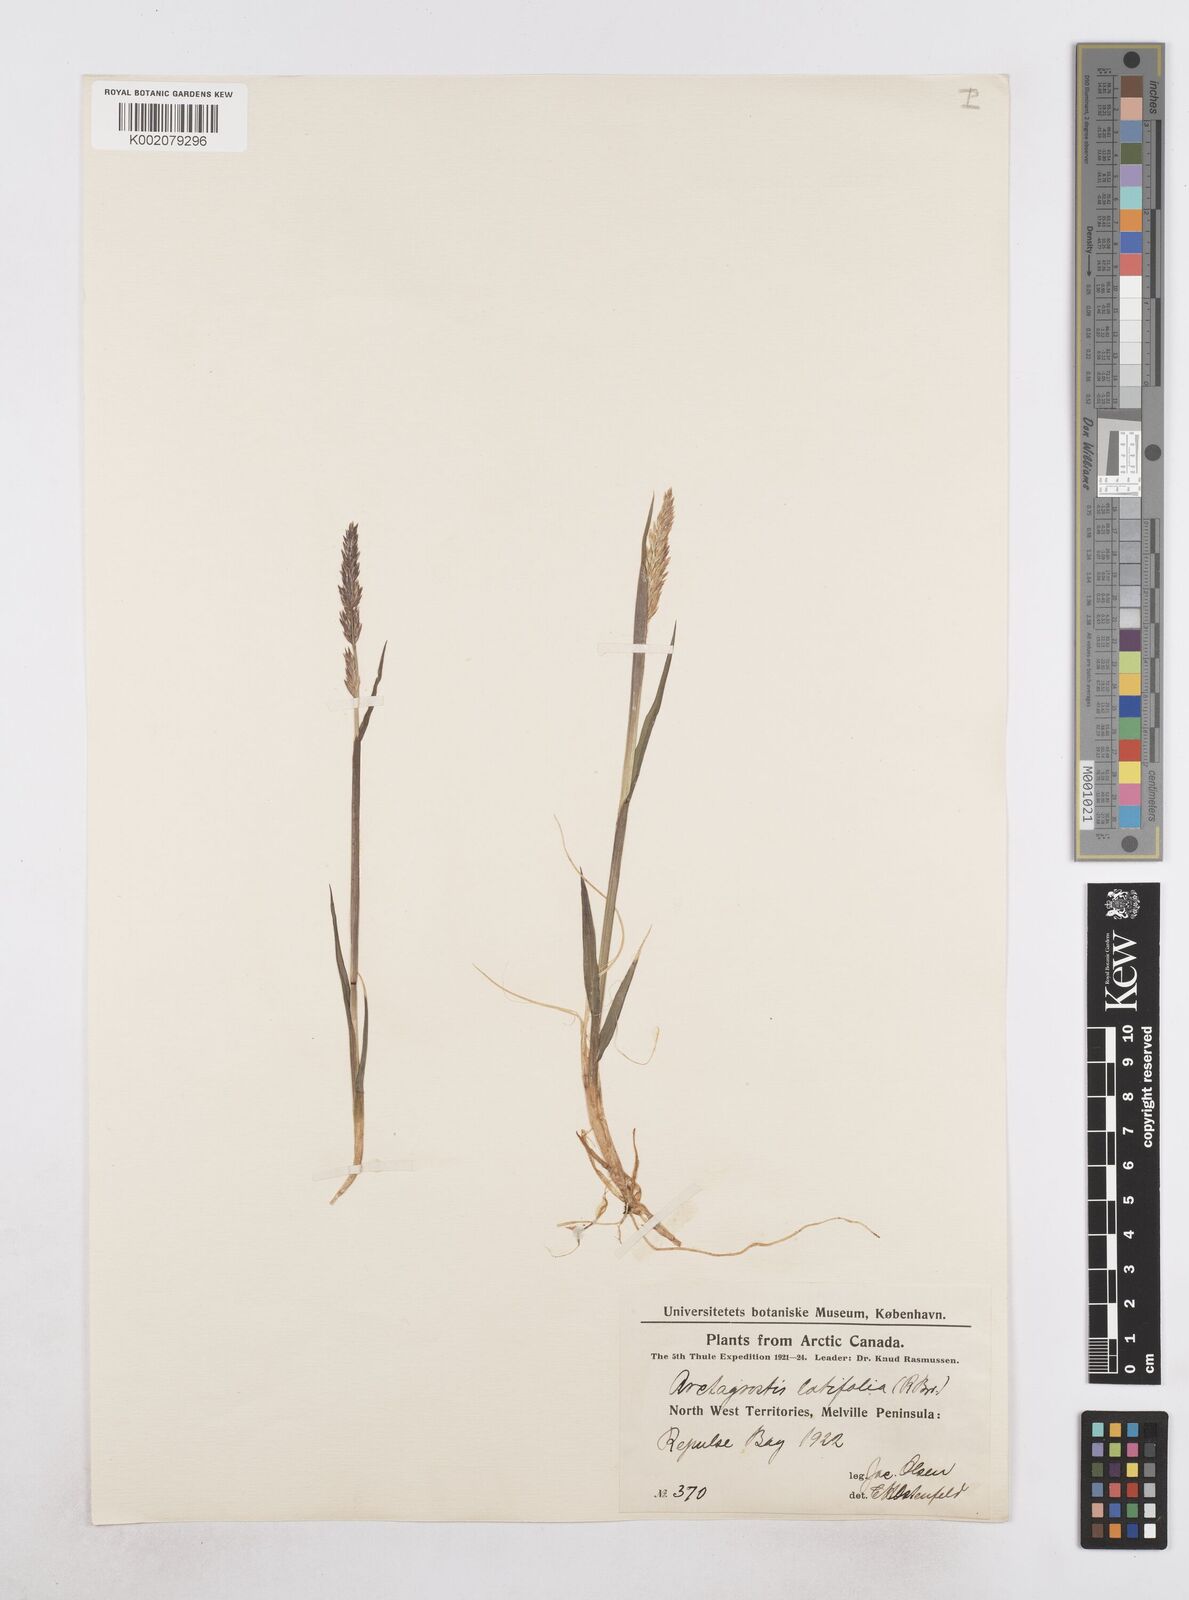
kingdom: Plantae
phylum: Tracheophyta
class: Liliopsida
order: Poales
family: Poaceae
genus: Arctagrostis
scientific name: Arctagrostis latifolia
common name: Arctic grass
